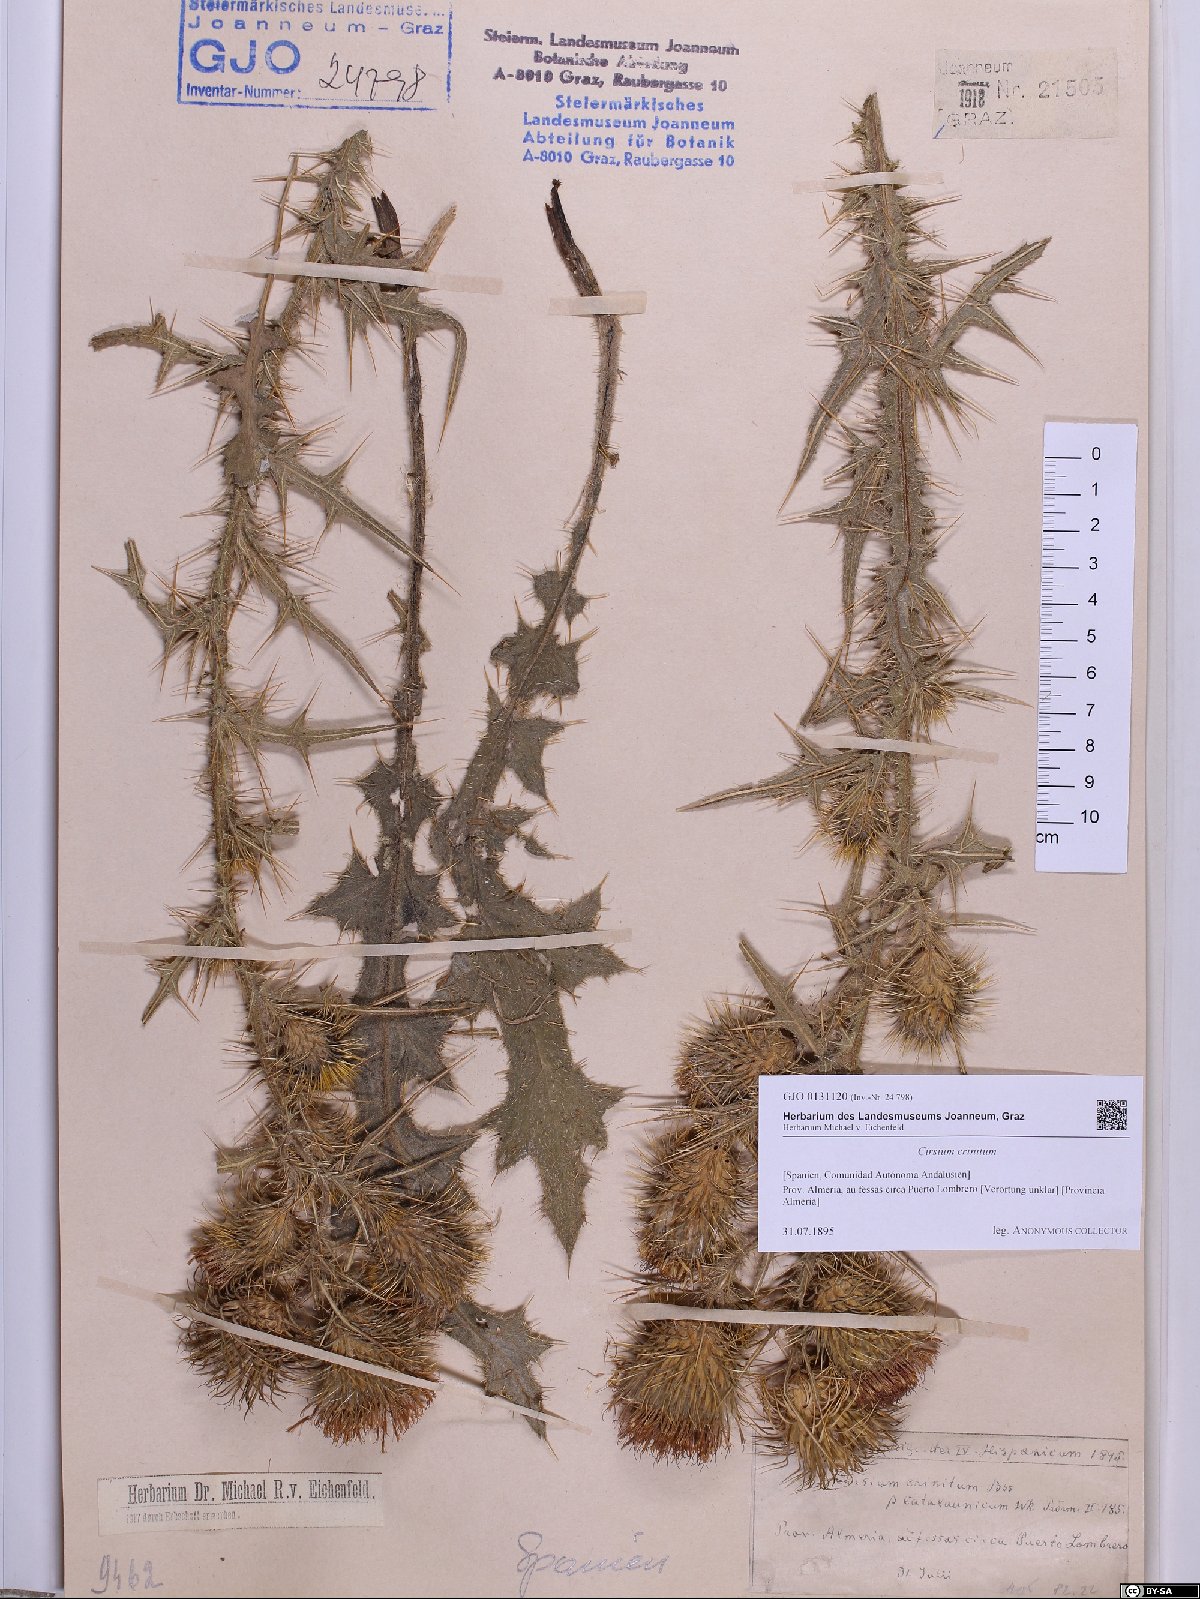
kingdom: Plantae
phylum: Tracheophyta
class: Magnoliopsida
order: Asterales
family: Asteraceae
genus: Cirsium
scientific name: Cirsium vulgare
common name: Bull thistle
